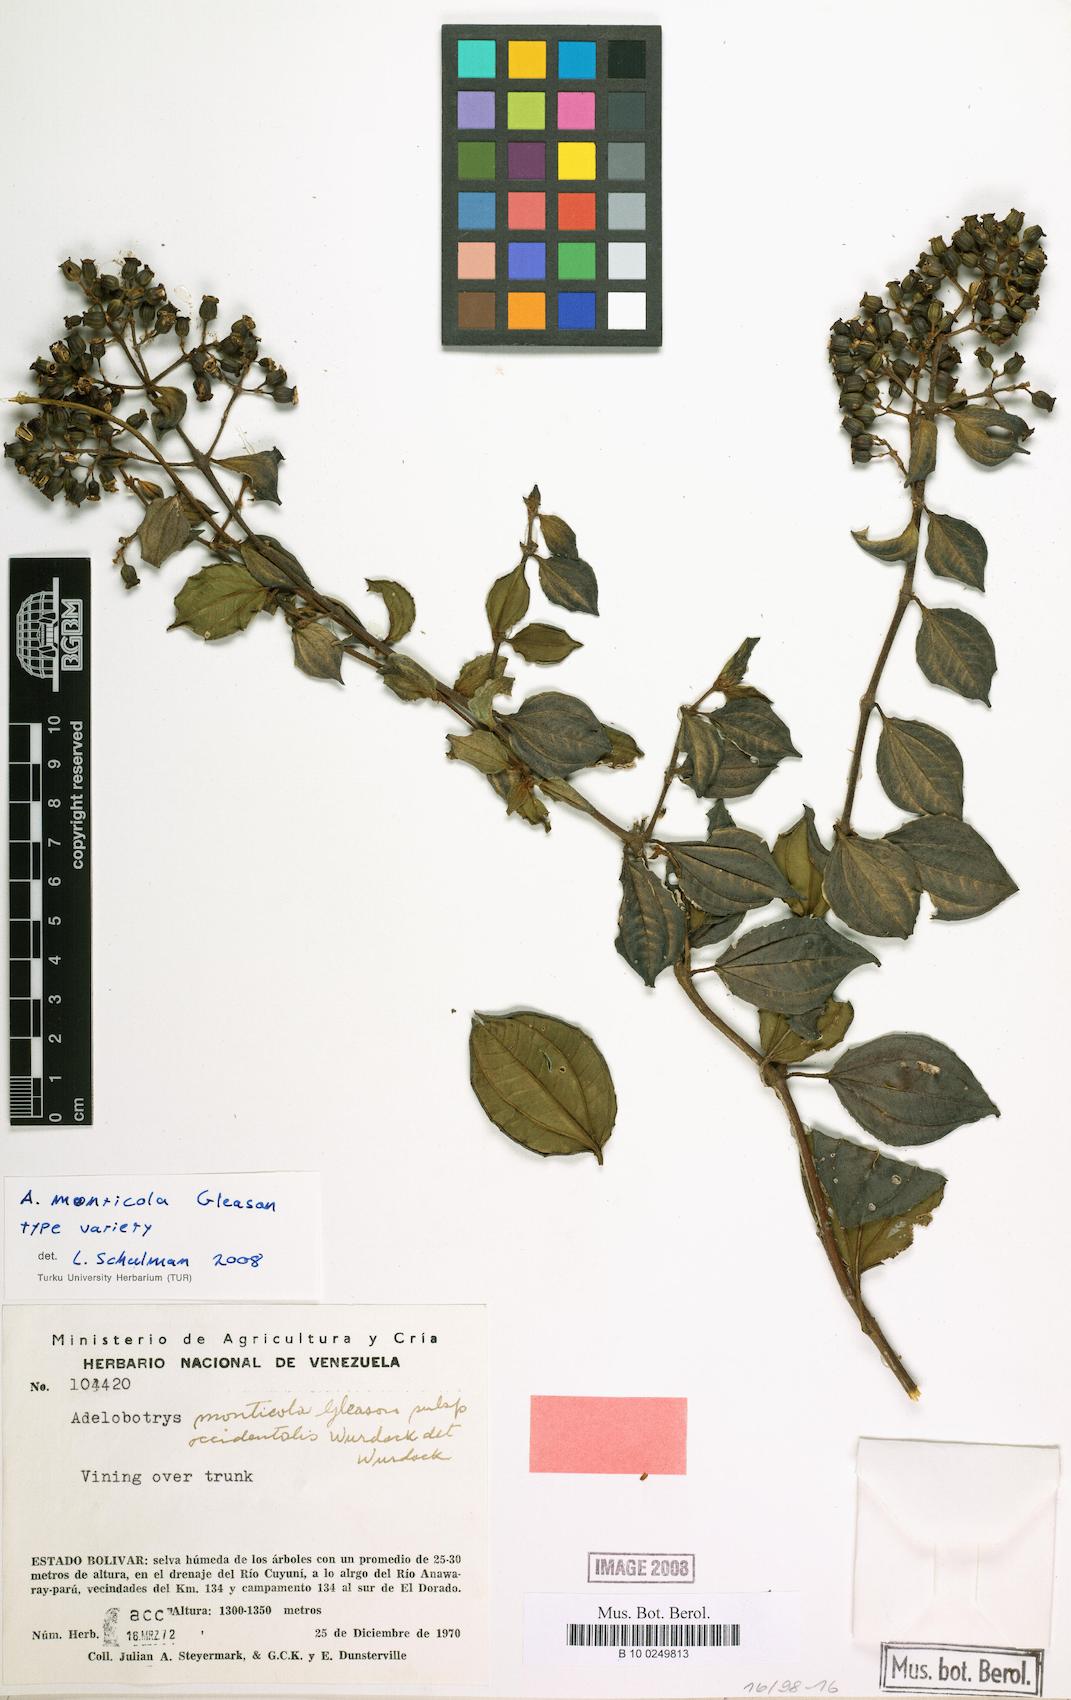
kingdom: Plantae
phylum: Tracheophyta
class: Magnoliopsida
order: Myrtales
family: Melastomataceae
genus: Adelobotrys
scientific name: Adelobotrys monticolus
